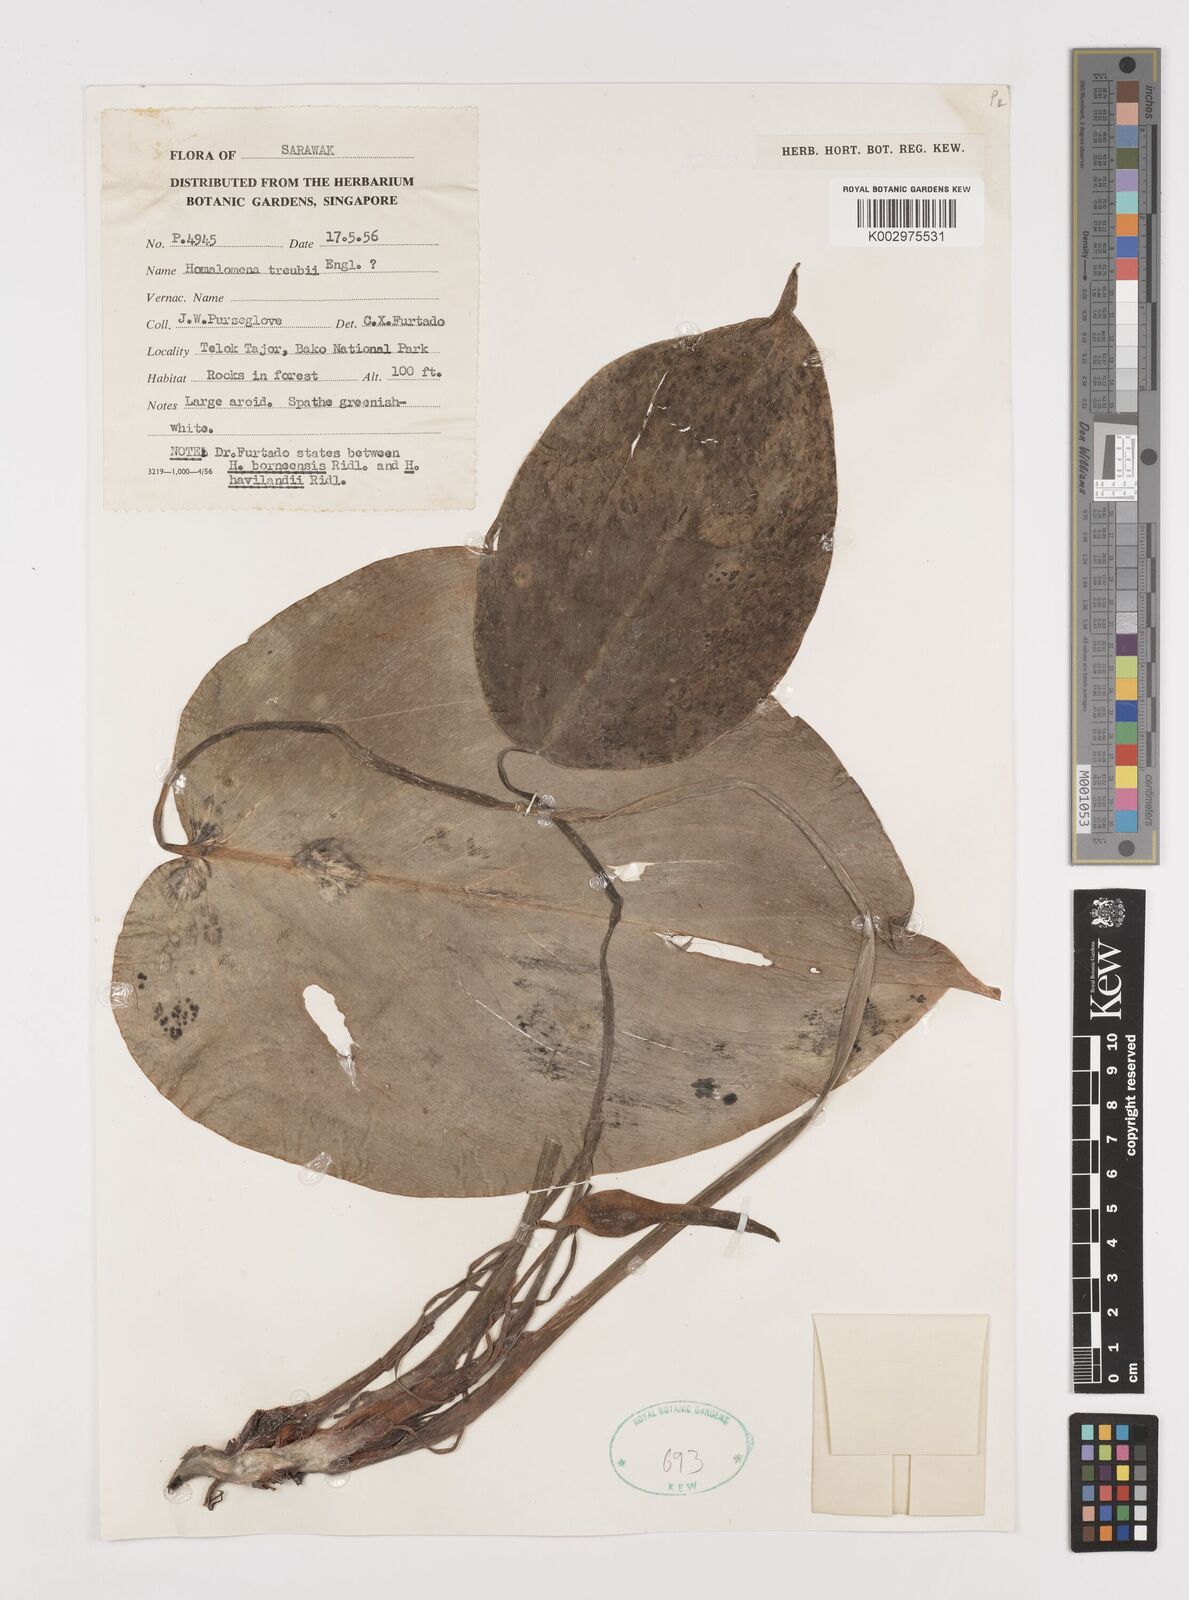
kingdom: Plantae
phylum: Tracheophyta
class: Liliopsida
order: Alismatales
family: Araceae
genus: Homalomena
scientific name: Homalomena treubii
